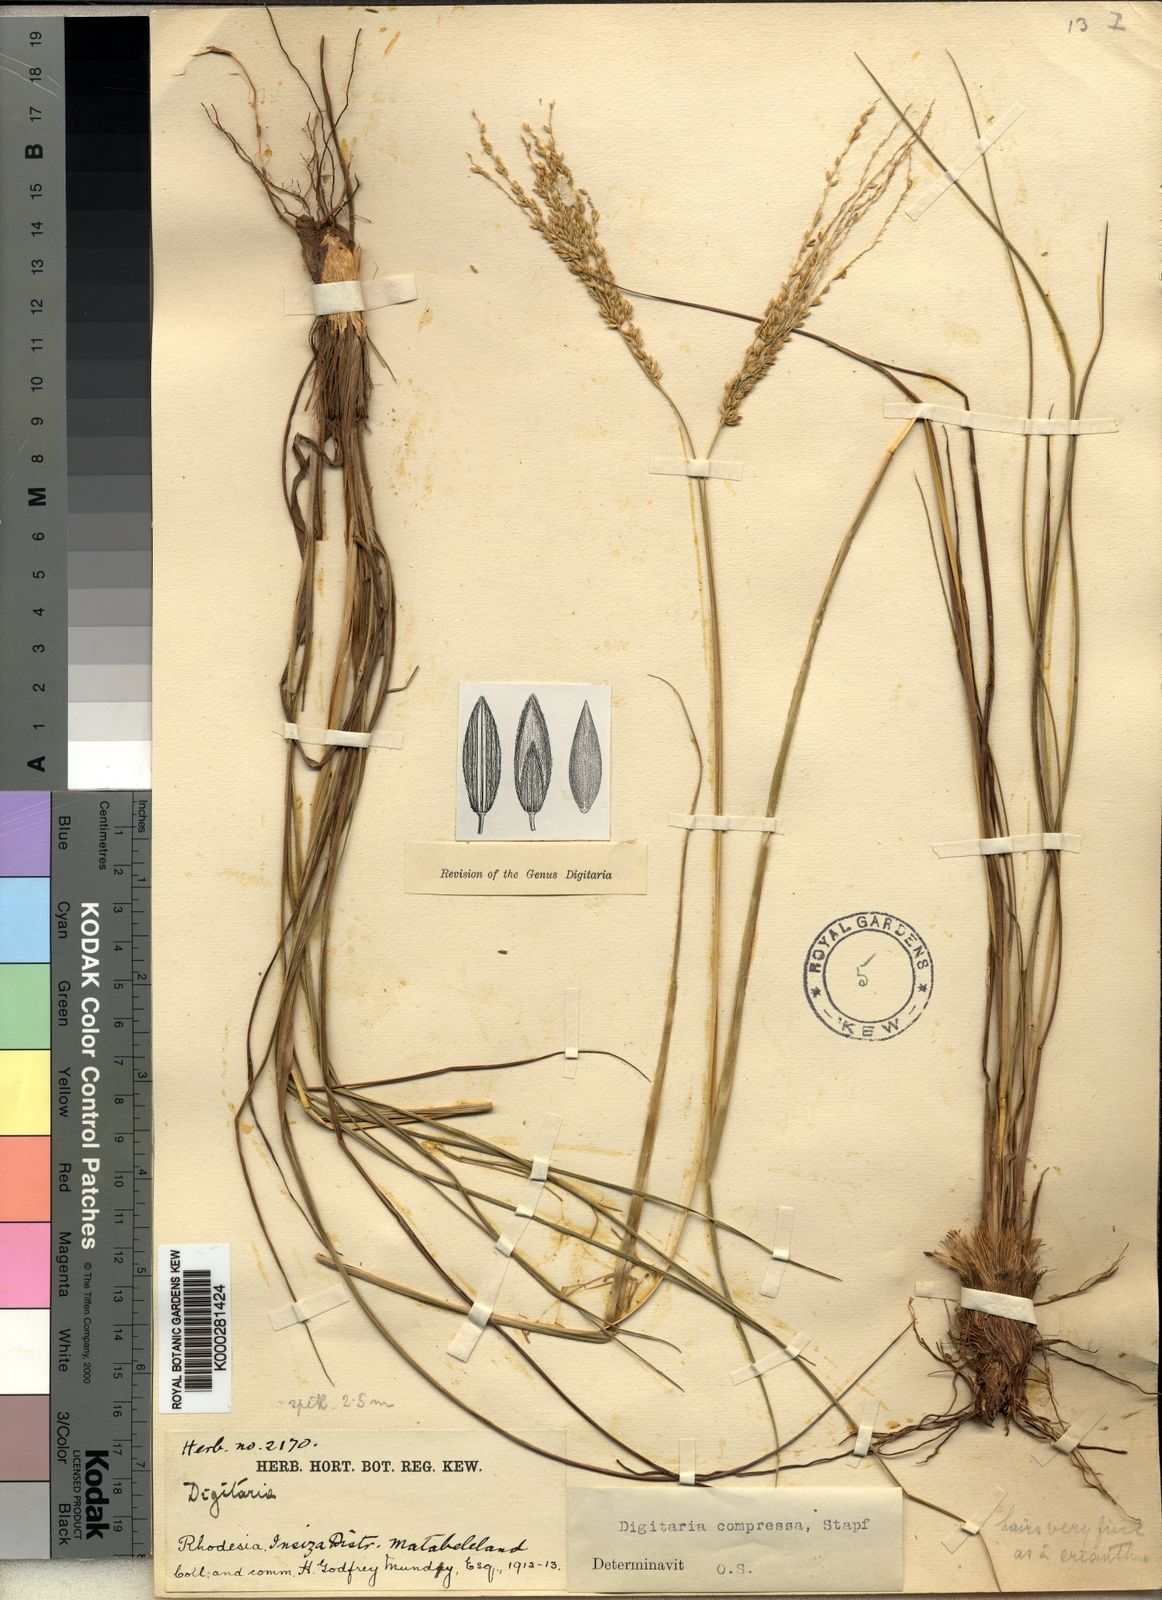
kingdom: Plantae
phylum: Tracheophyta
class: Liliopsida
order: Poales
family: Poaceae
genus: Digitaria
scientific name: Digitaria compressa
